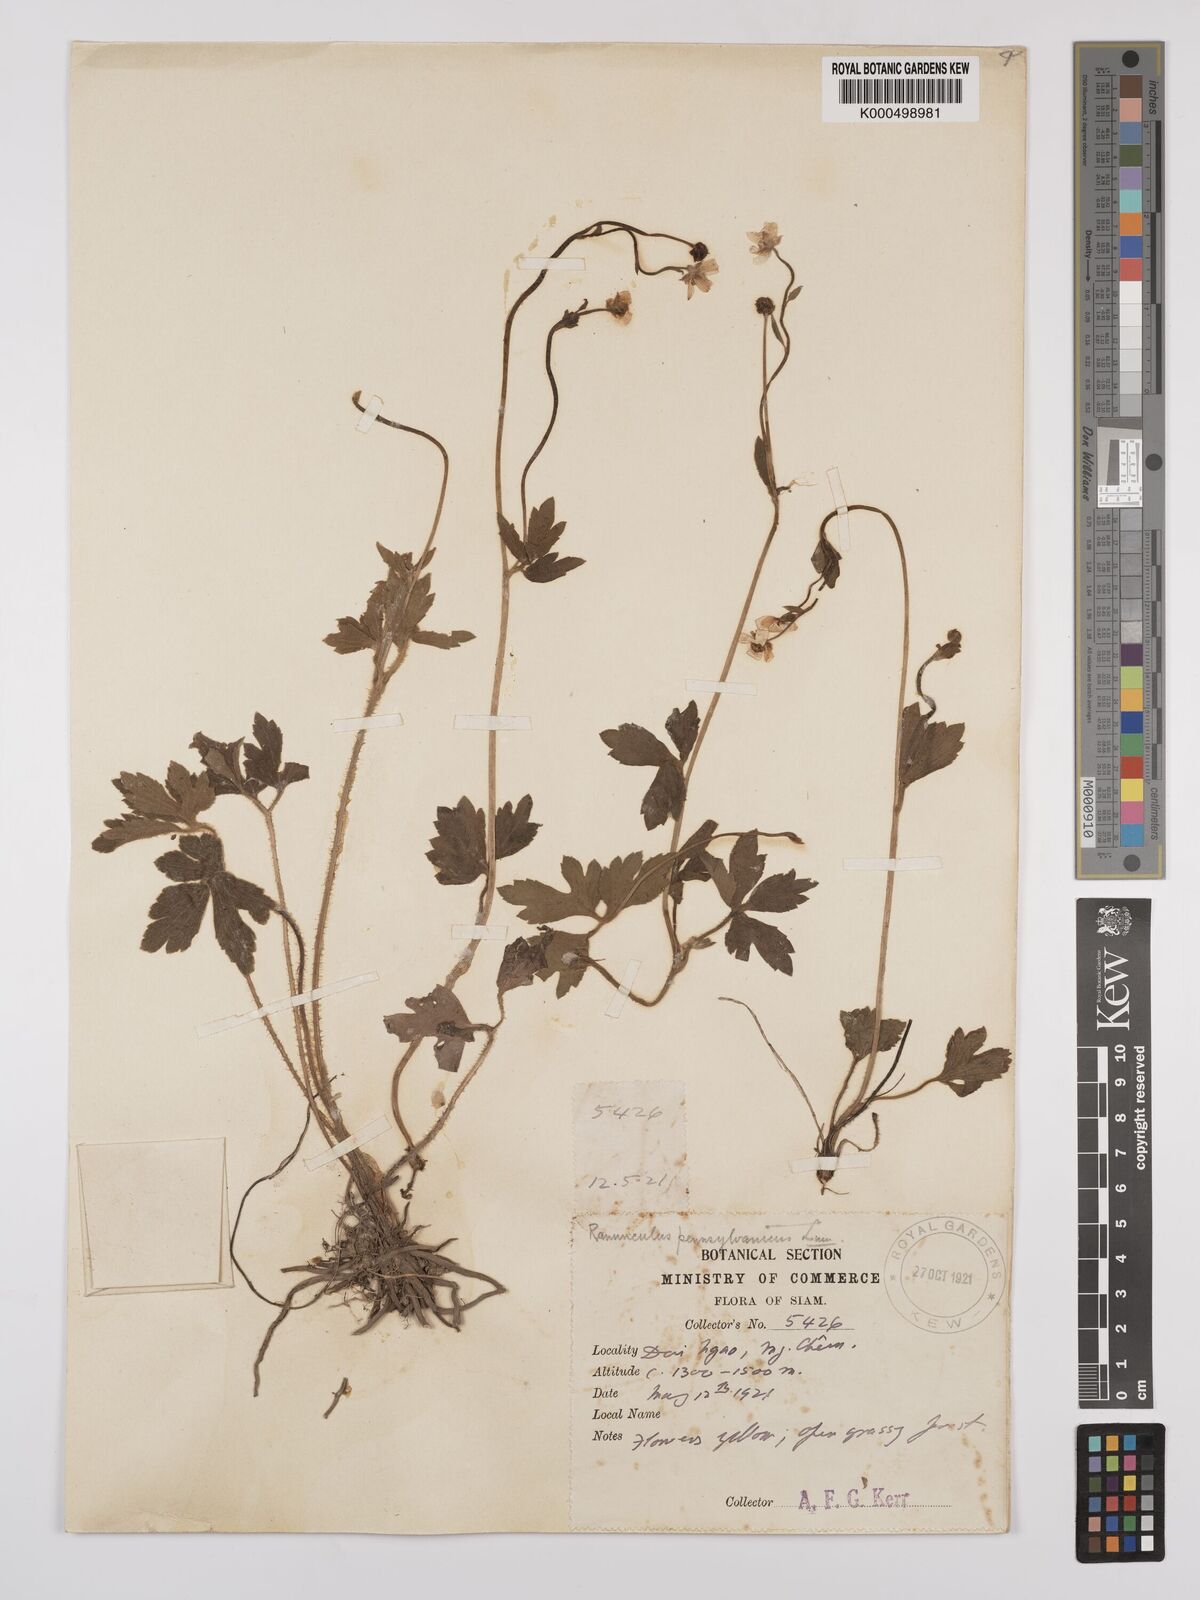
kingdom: Plantae
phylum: Tracheophyta
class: Magnoliopsida
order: Ranunculales
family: Ranunculaceae
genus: Ranunculus
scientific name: Ranunculus siamensis
